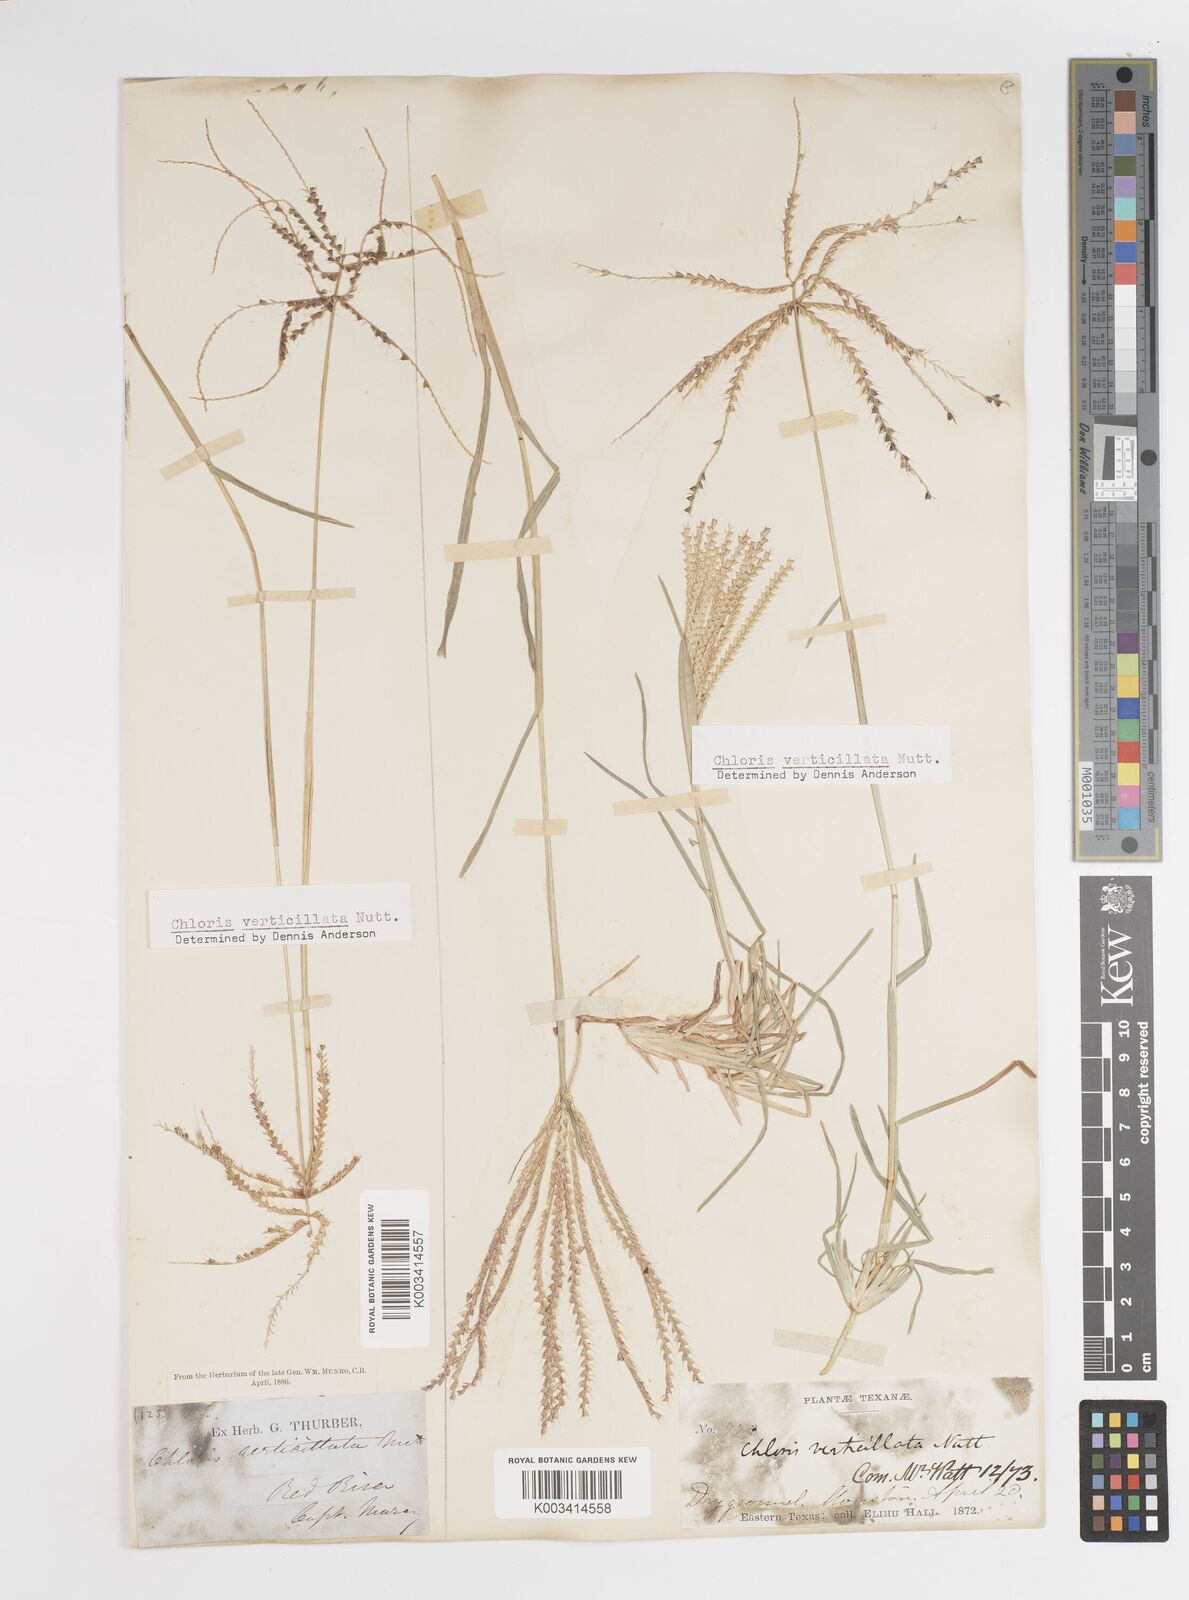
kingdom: Plantae
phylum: Tracheophyta
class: Liliopsida
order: Poales
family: Poaceae
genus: Chloris
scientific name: Chloris verticillata
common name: Tumble windmill grass
